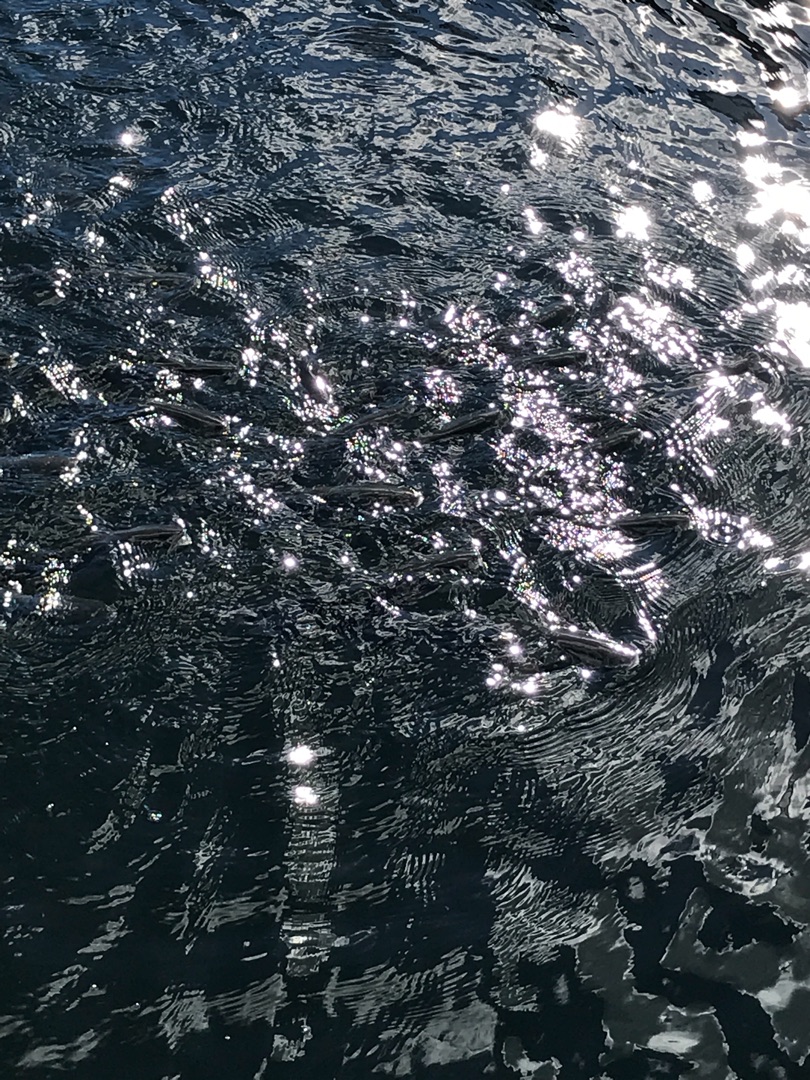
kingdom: Animalia
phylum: Chordata
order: Mugiliformes
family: Mugilidae
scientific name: Mugilidae
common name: Multefamilien
